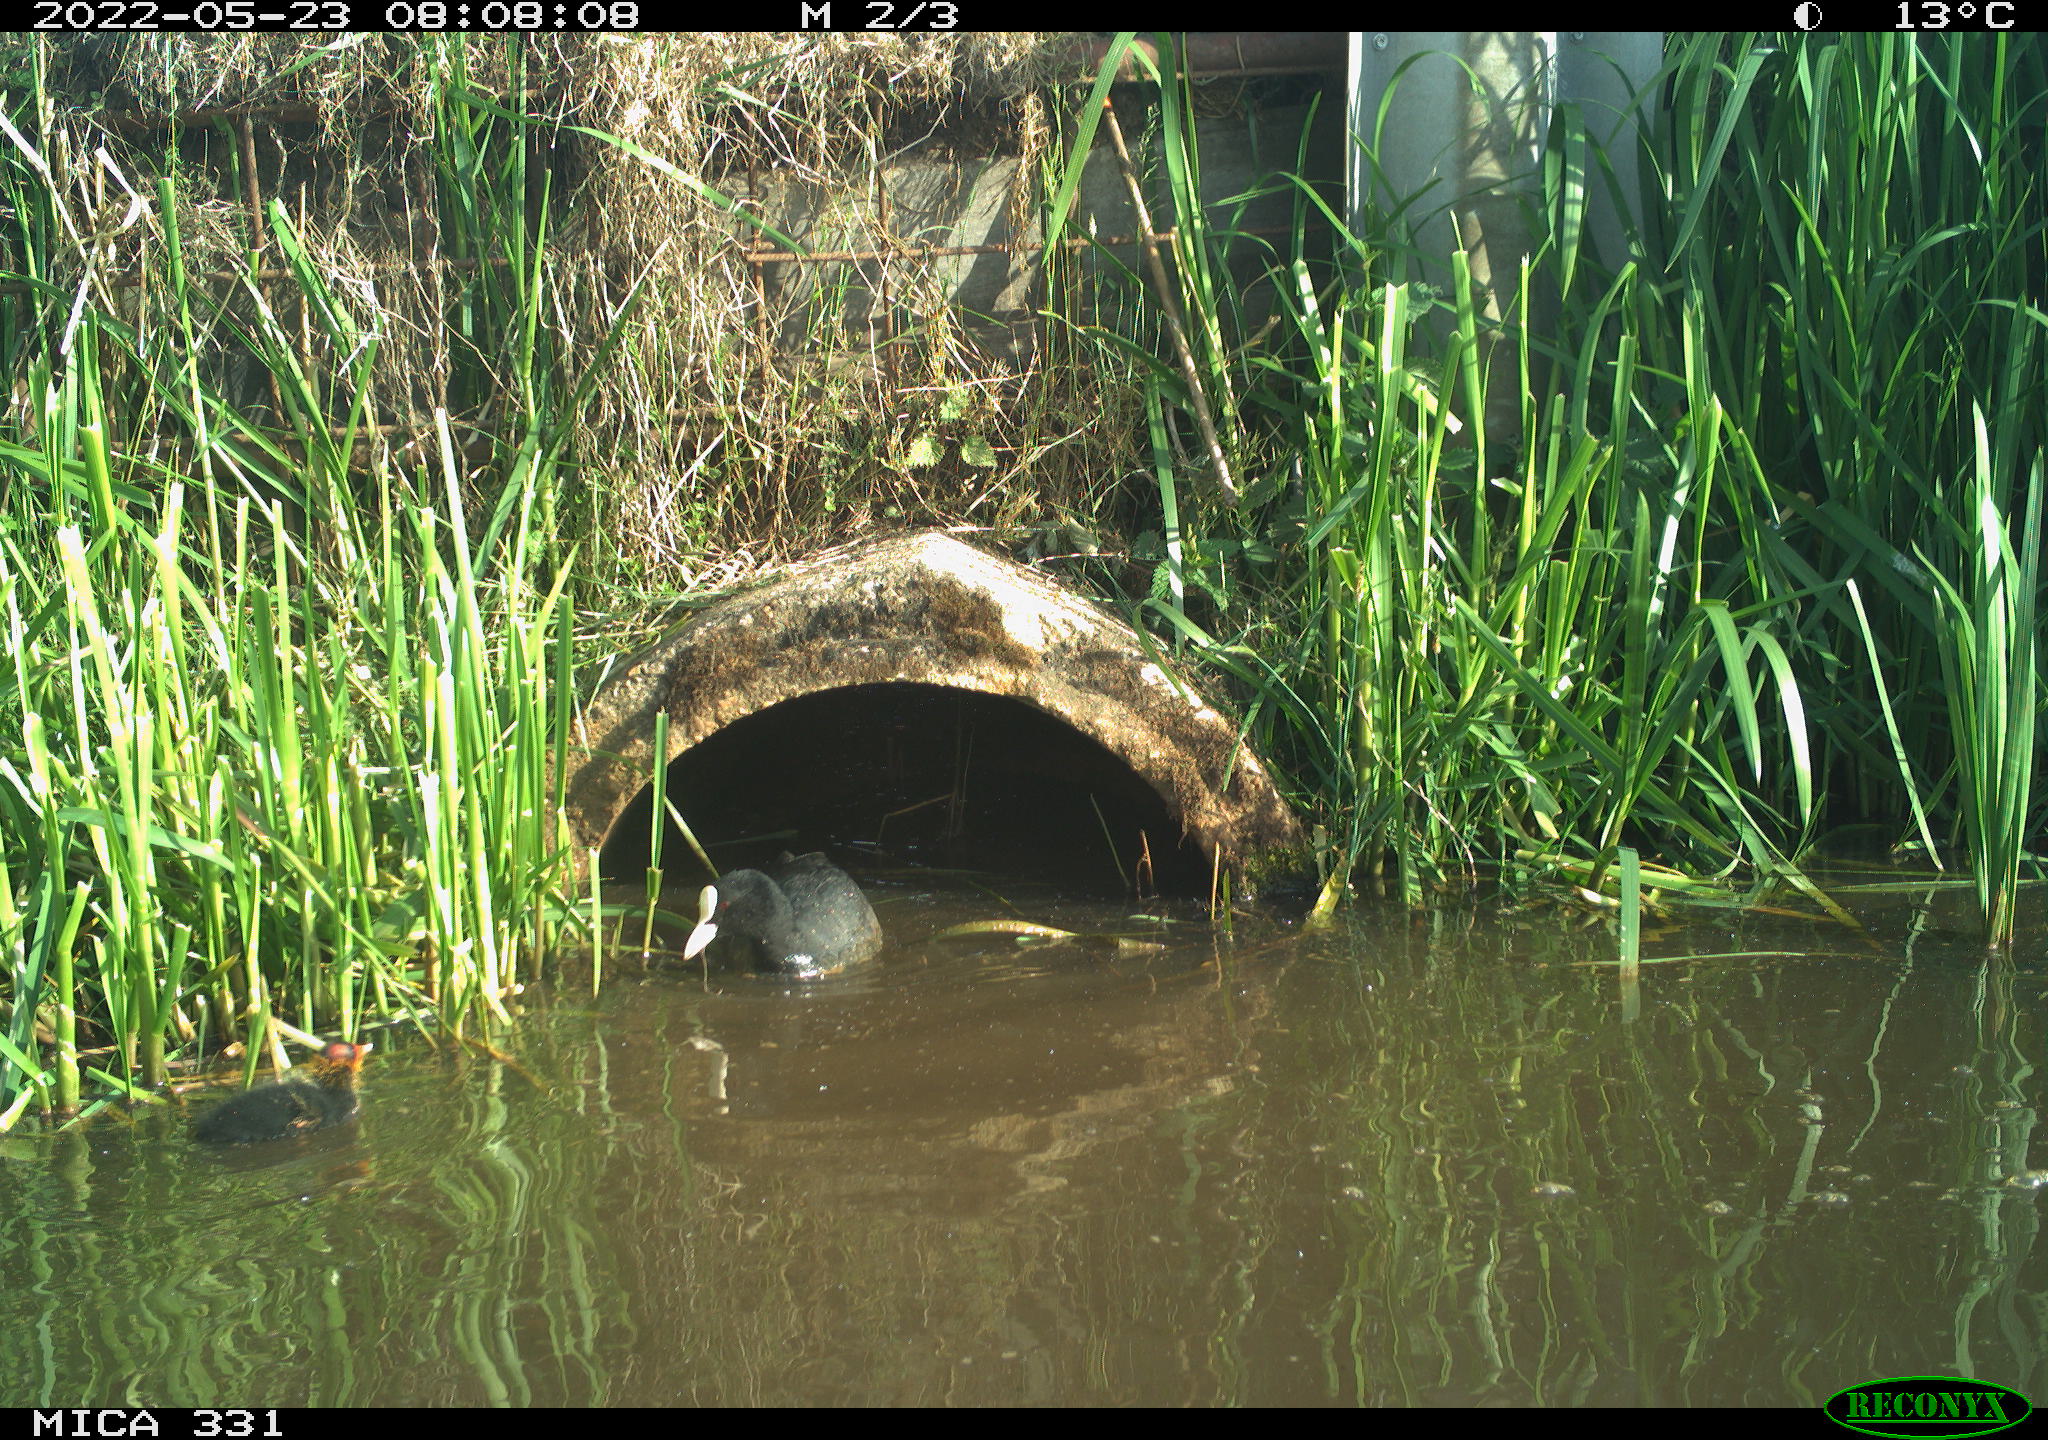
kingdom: Animalia
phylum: Chordata
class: Aves
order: Gruiformes
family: Rallidae
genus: Fulica
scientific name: Fulica atra
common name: Eurasian coot
